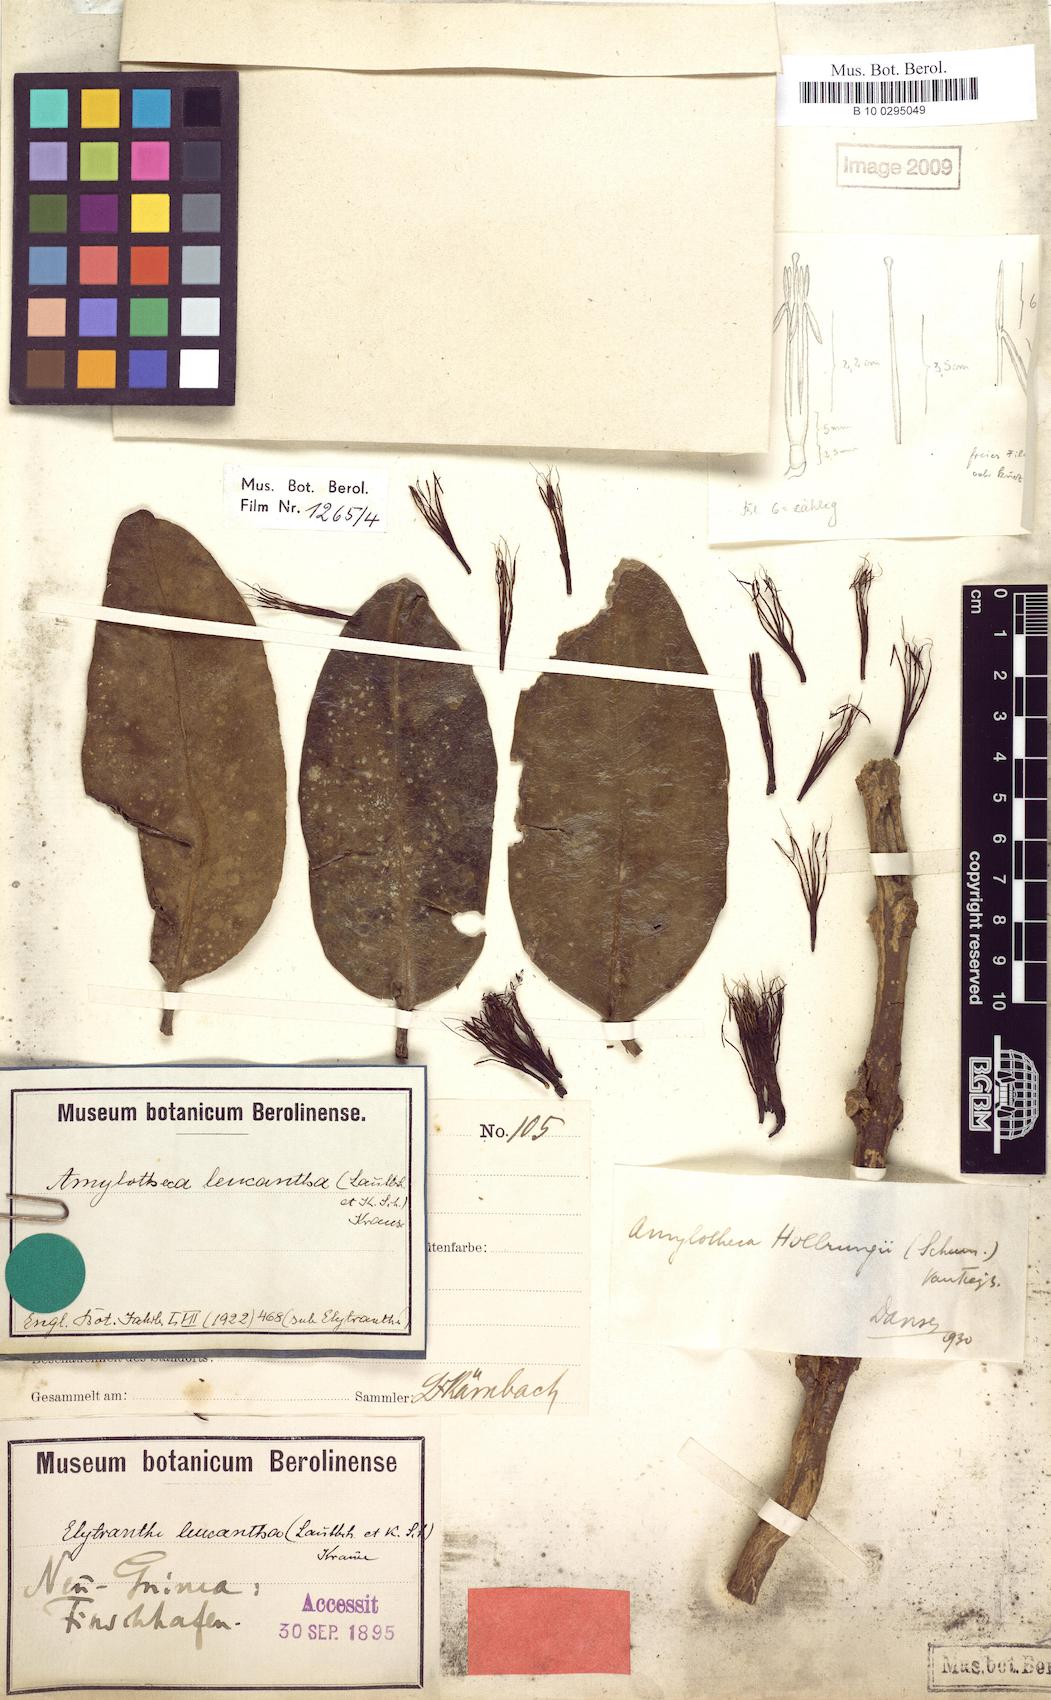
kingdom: Plantae
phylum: Tracheophyta
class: Magnoliopsida
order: Santalales
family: Loranthaceae
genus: Decaisnina
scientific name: Decaisnina hollrungii
